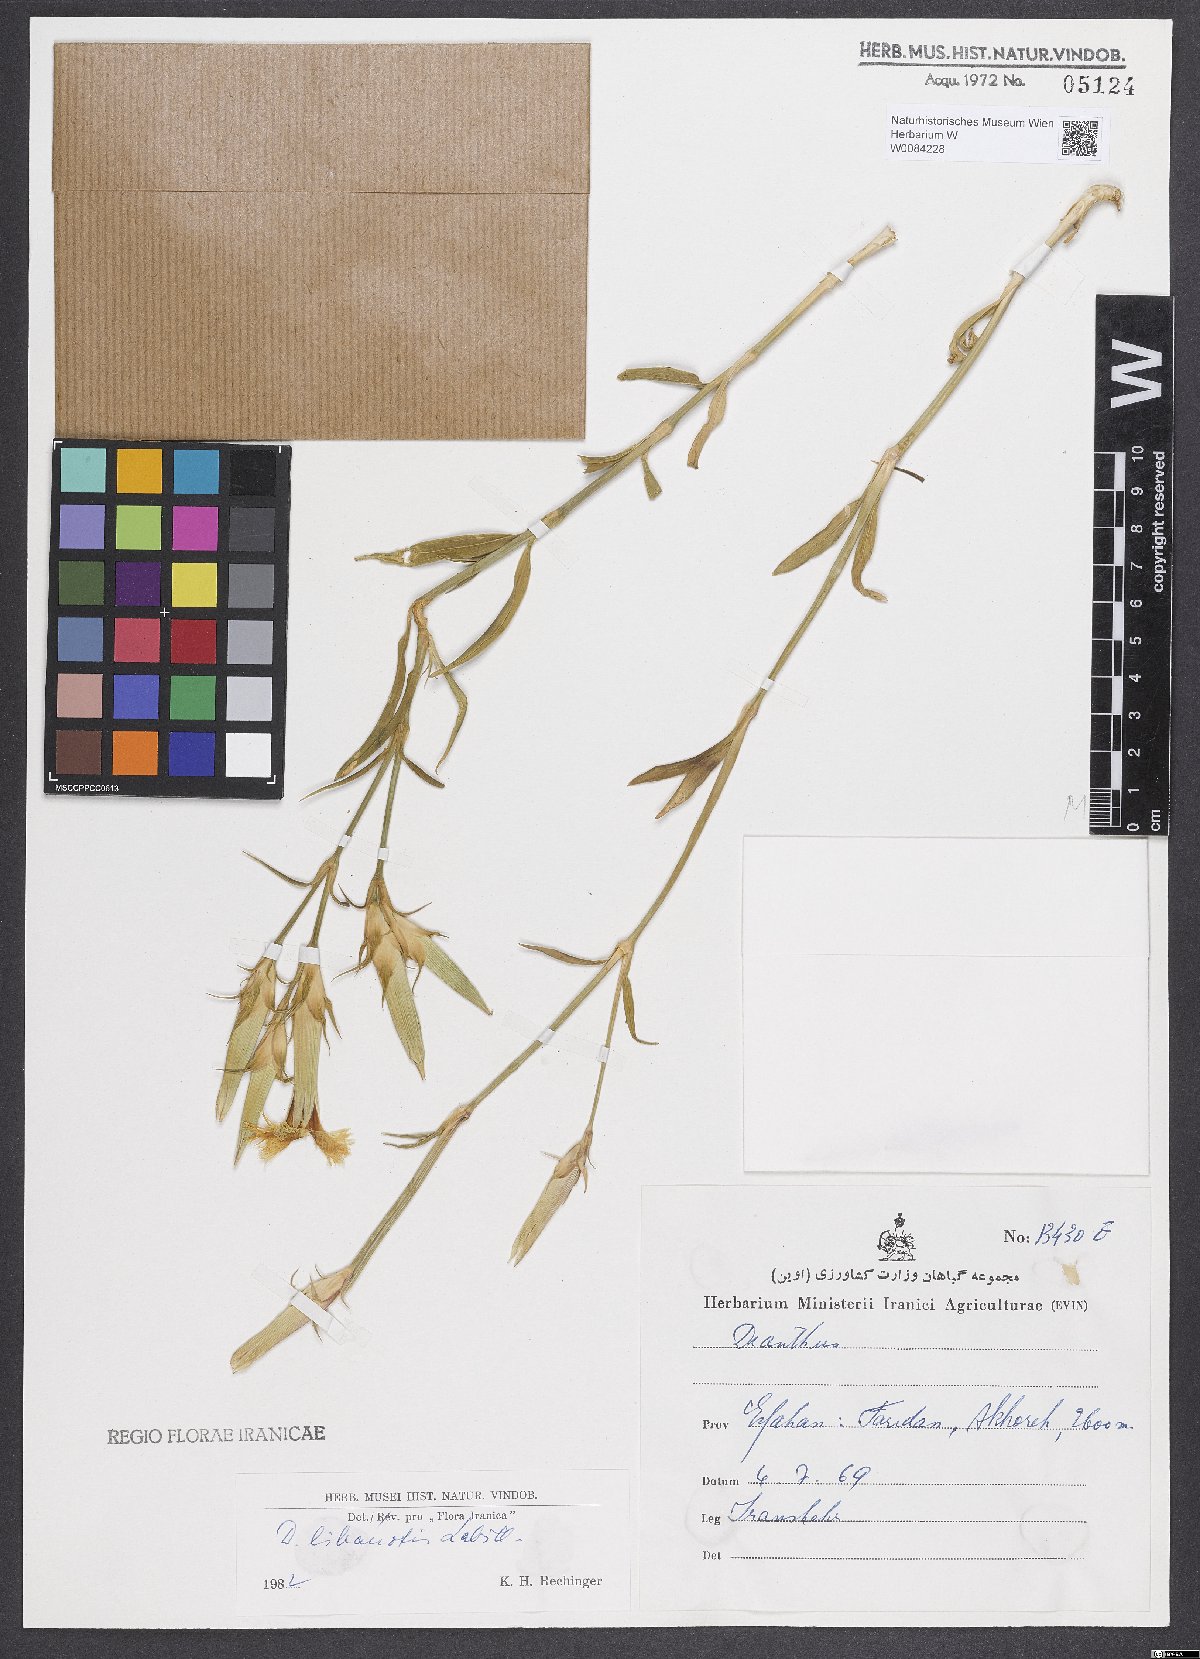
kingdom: Plantae
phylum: Tracheophyta
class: Magnoliopsida
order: Caryophyllales
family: Caryophyllaceae
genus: Dianthus
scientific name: Dianthus libanotis
